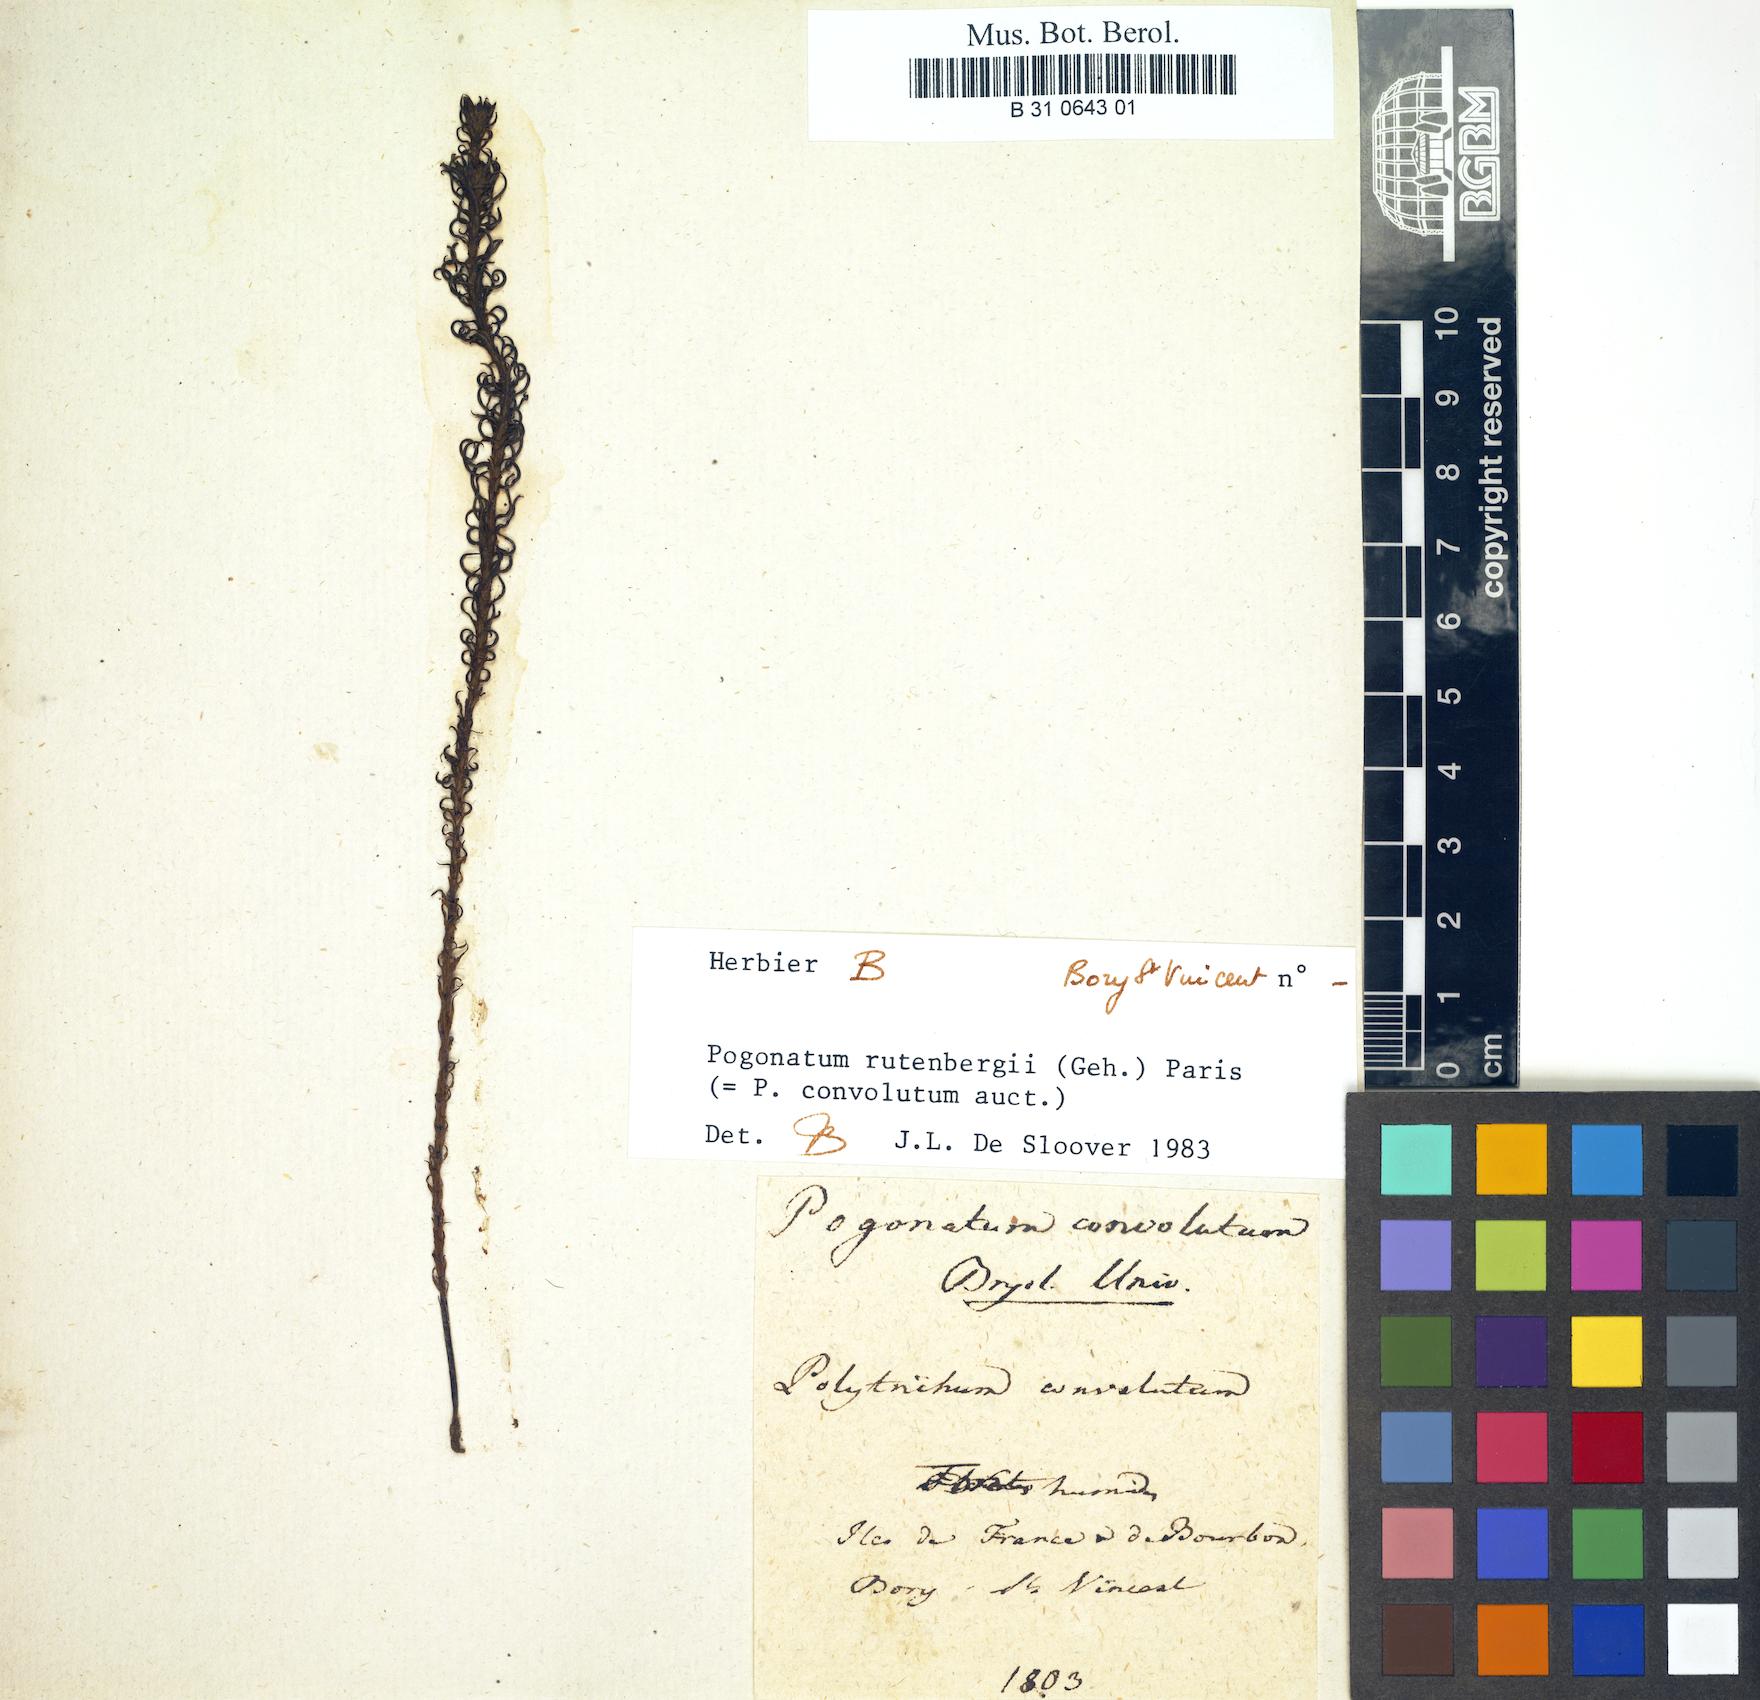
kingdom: Plantae
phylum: Bryophyta
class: Polytrichopsida
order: Polytrichales
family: Polytrichaceae
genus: Pogonatum
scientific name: Pogonatum convolutum
